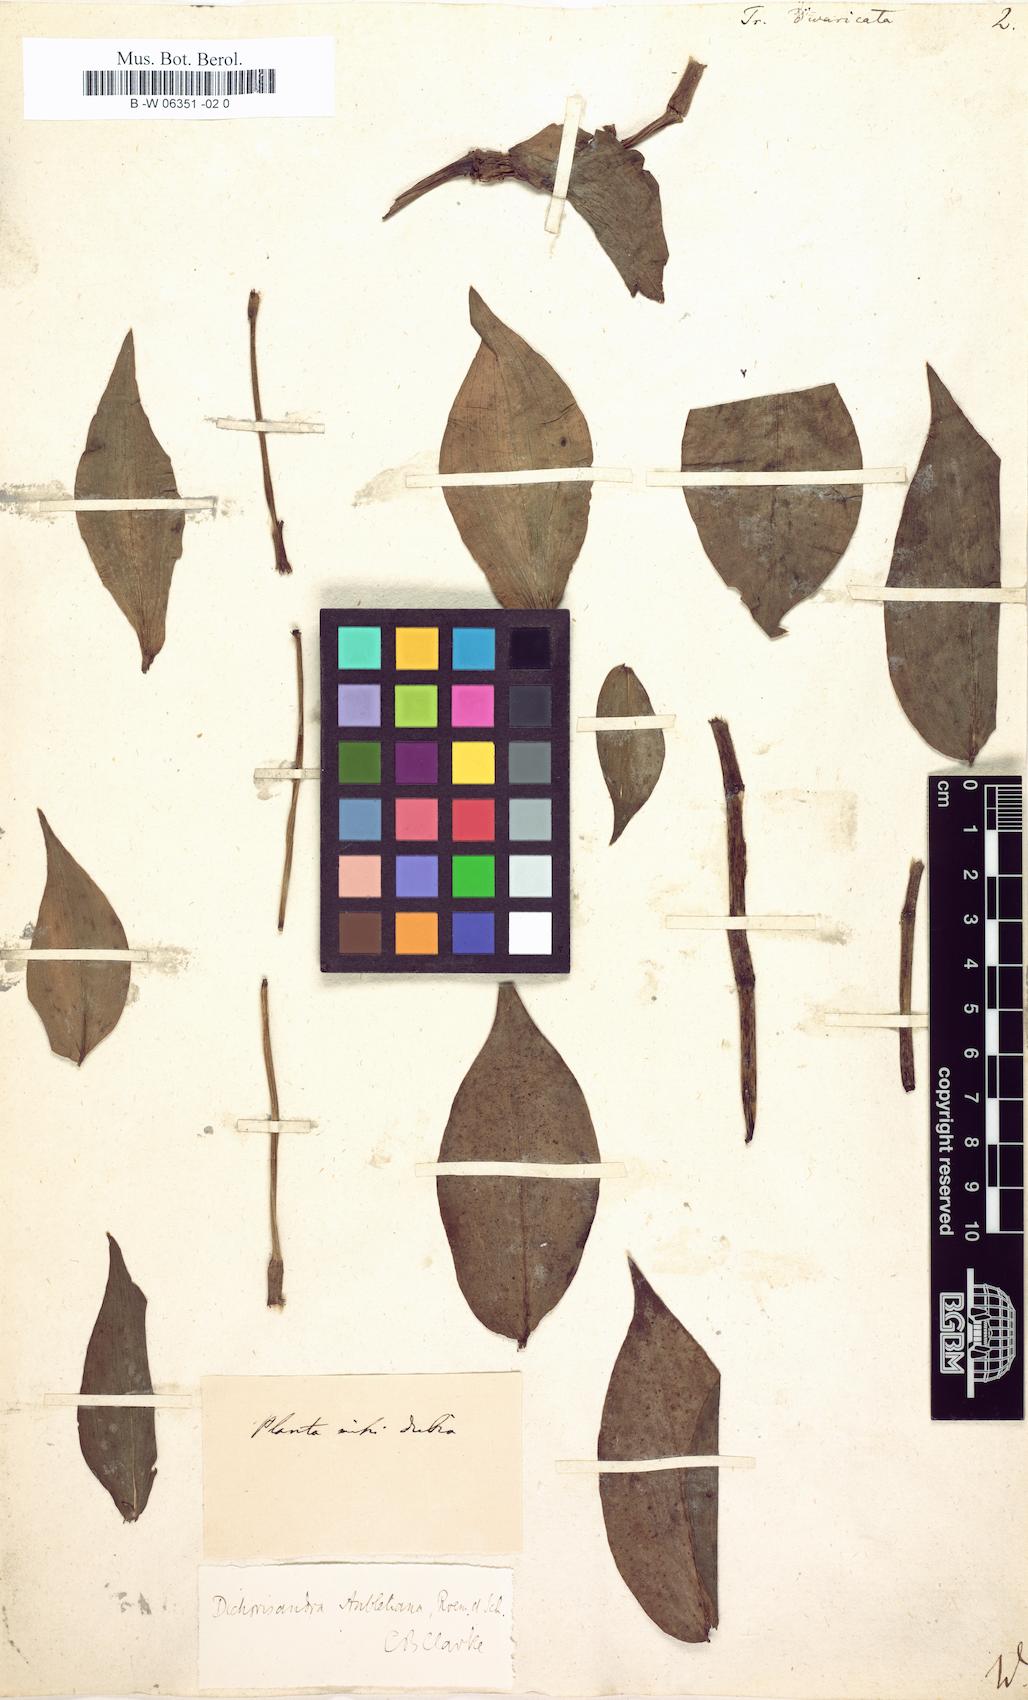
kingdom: Plantae
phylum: Tracheophyta
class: Liliopsida
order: Commelinales
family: Commelinaceae
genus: Dichorisandra
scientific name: Dichorisandra hexandra
